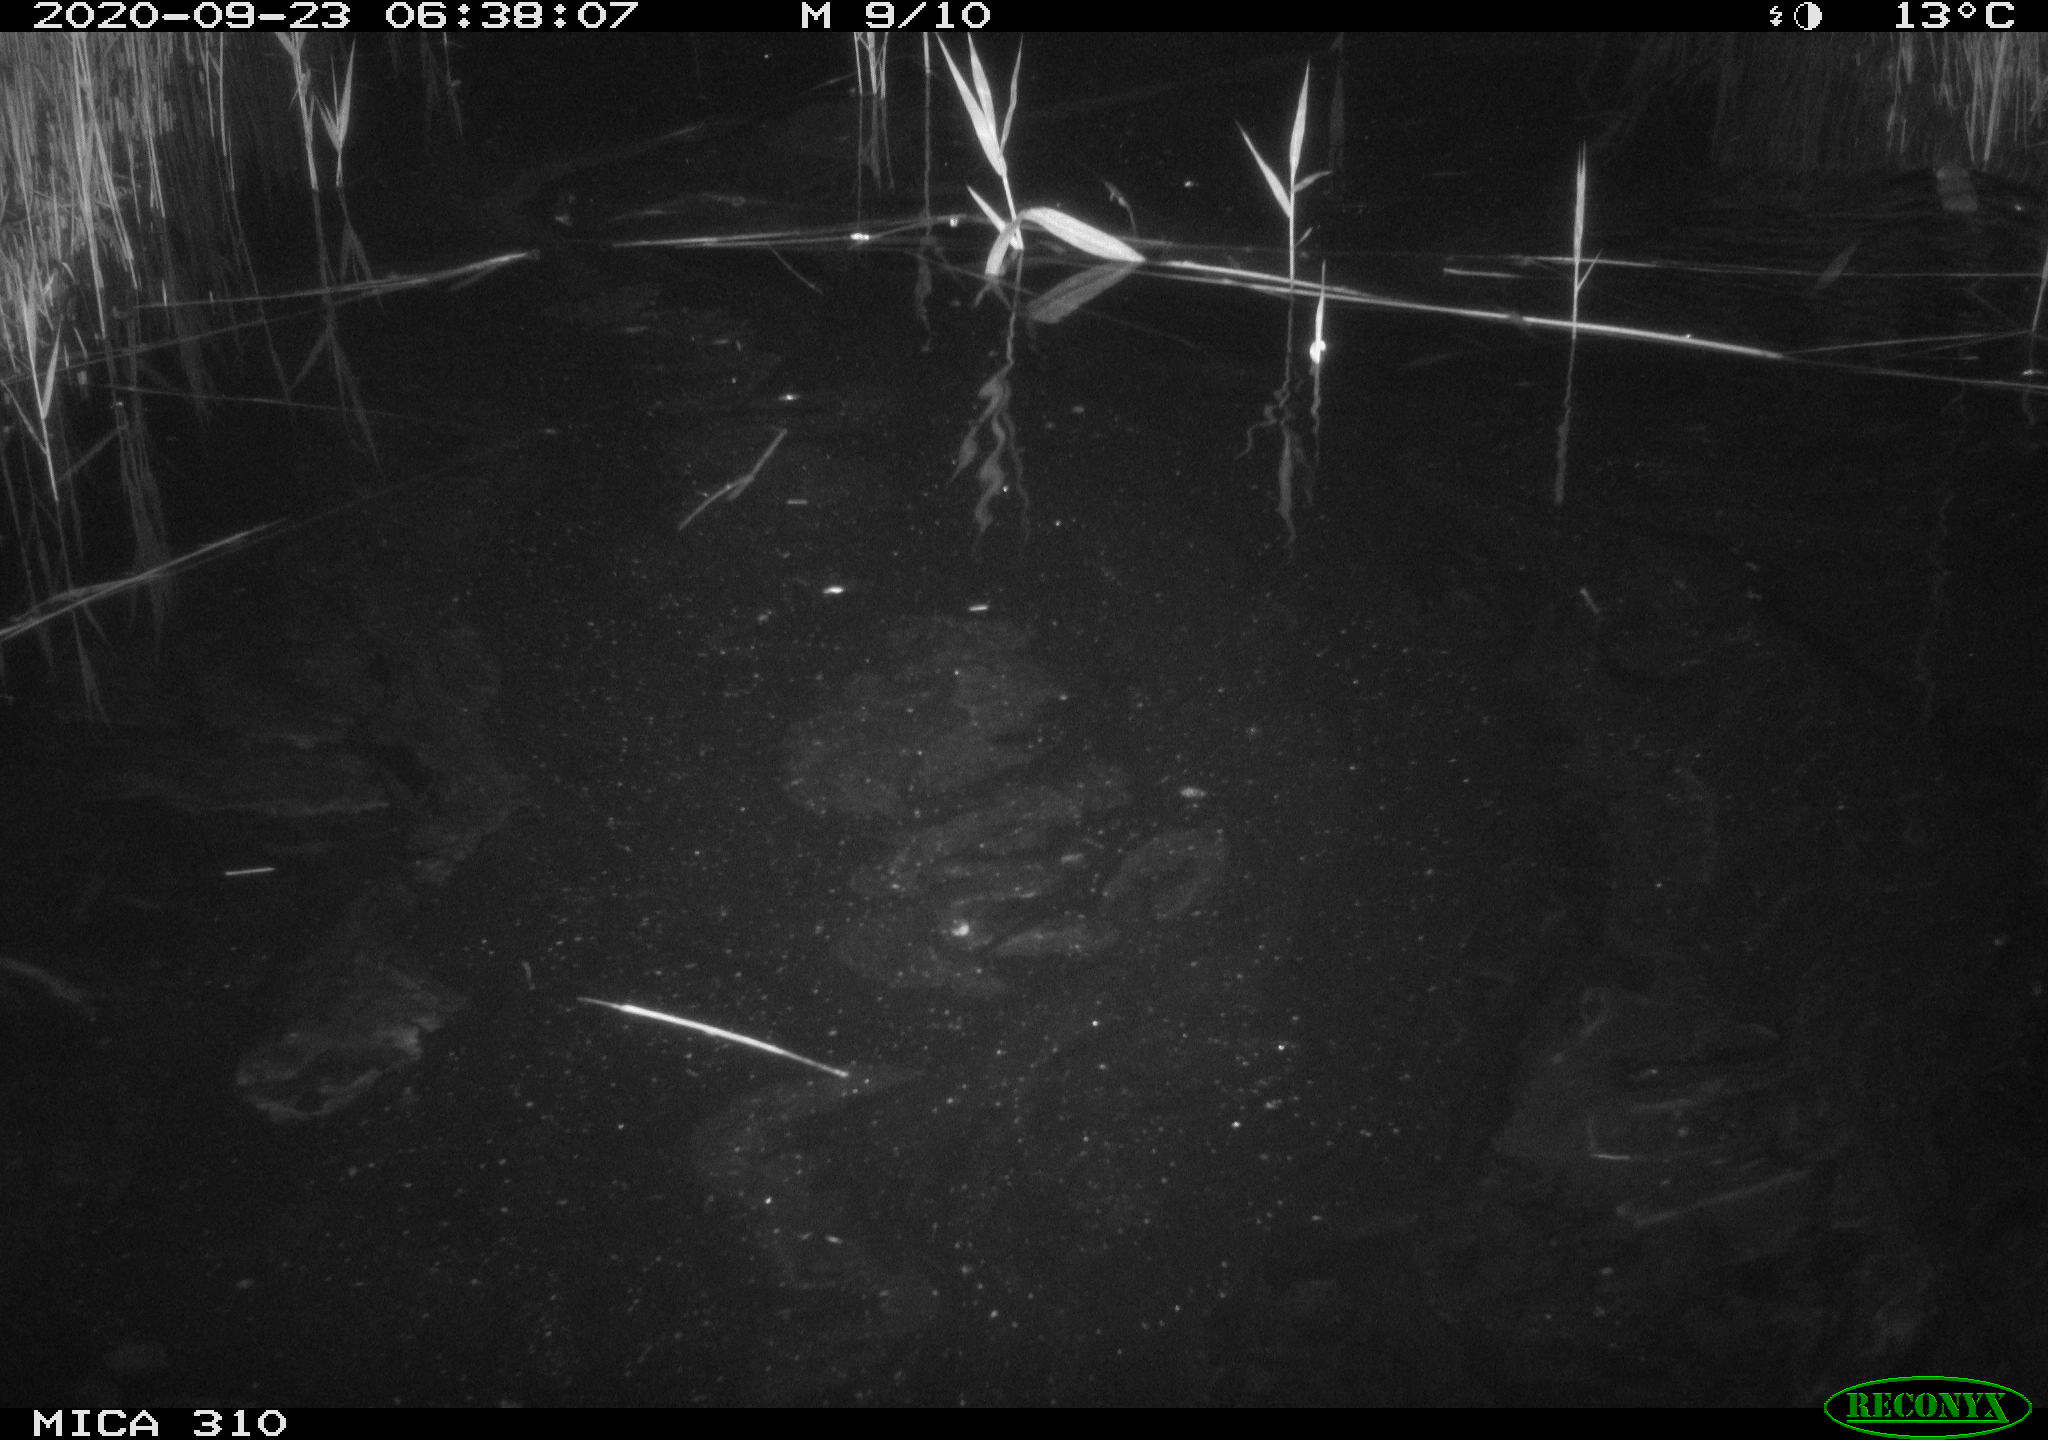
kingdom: Animalia
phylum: Chordata
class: Mammalia
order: Rodentia
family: Muridae
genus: Rattus
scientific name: Rattus norvegicus
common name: Brown rat
